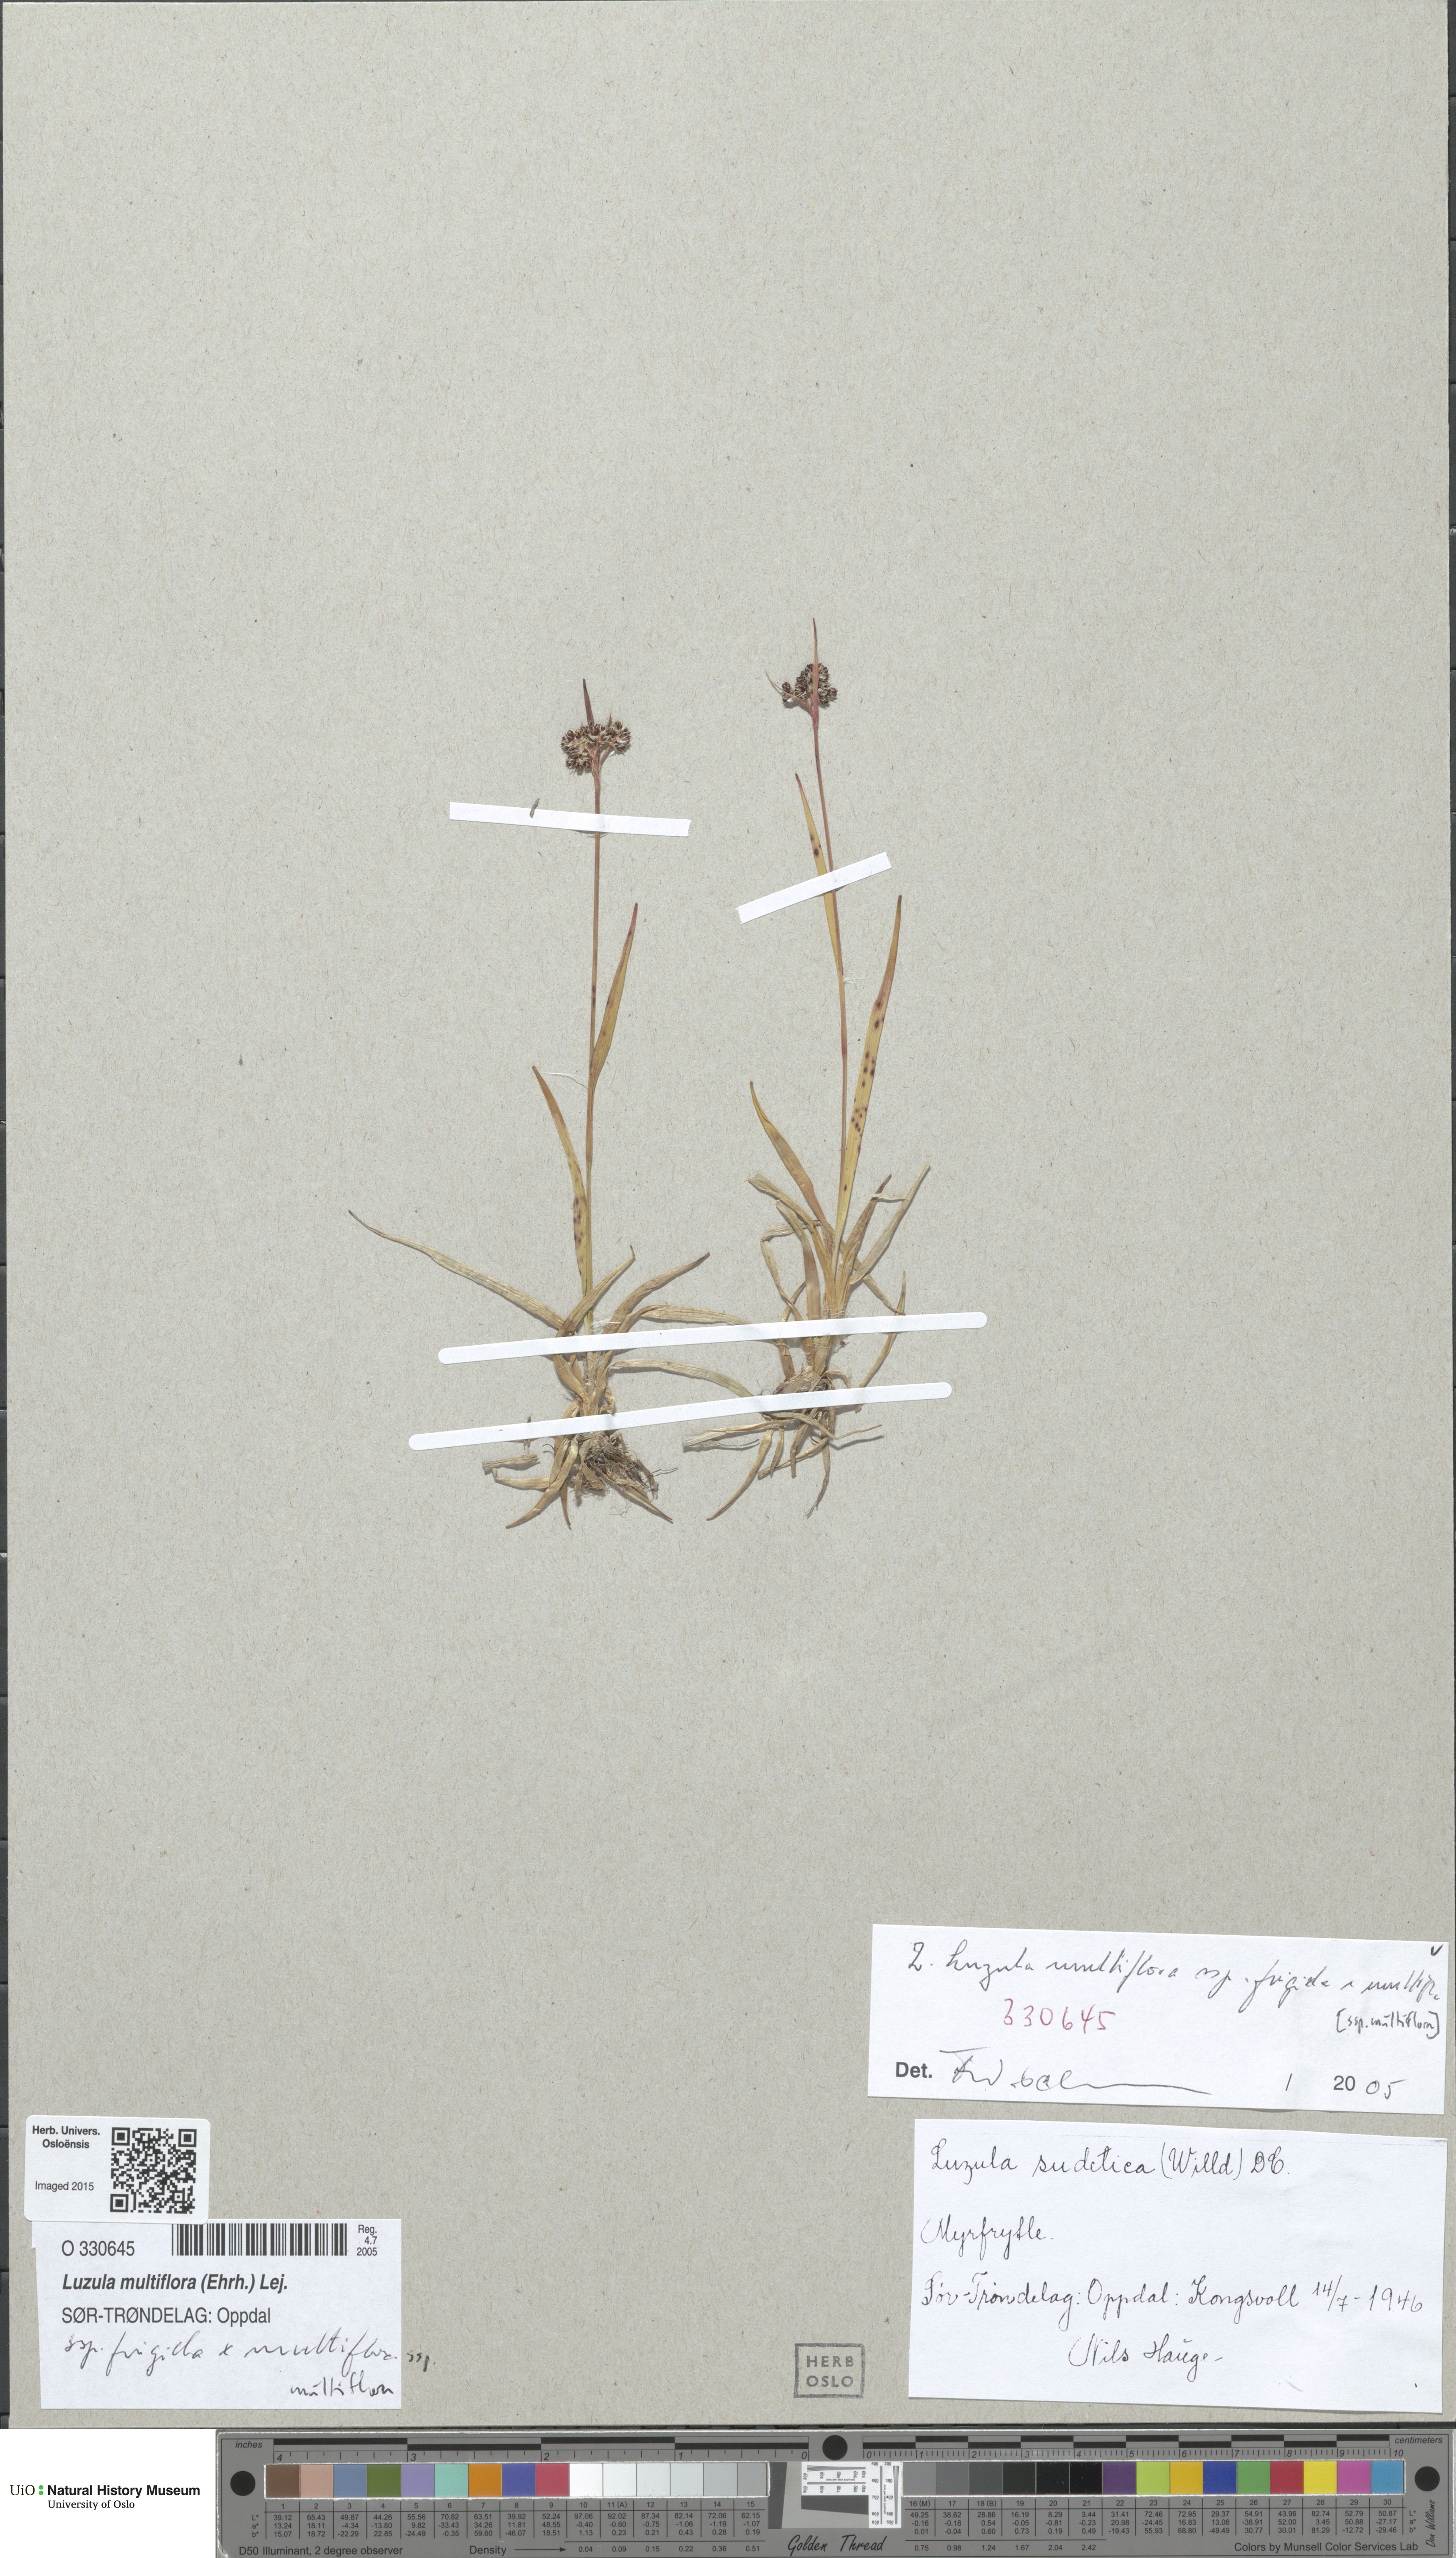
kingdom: Plantae
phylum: Tracheophyta
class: Liliopsida
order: Poales
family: Juncaceae
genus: Luzula
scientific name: Luzula
